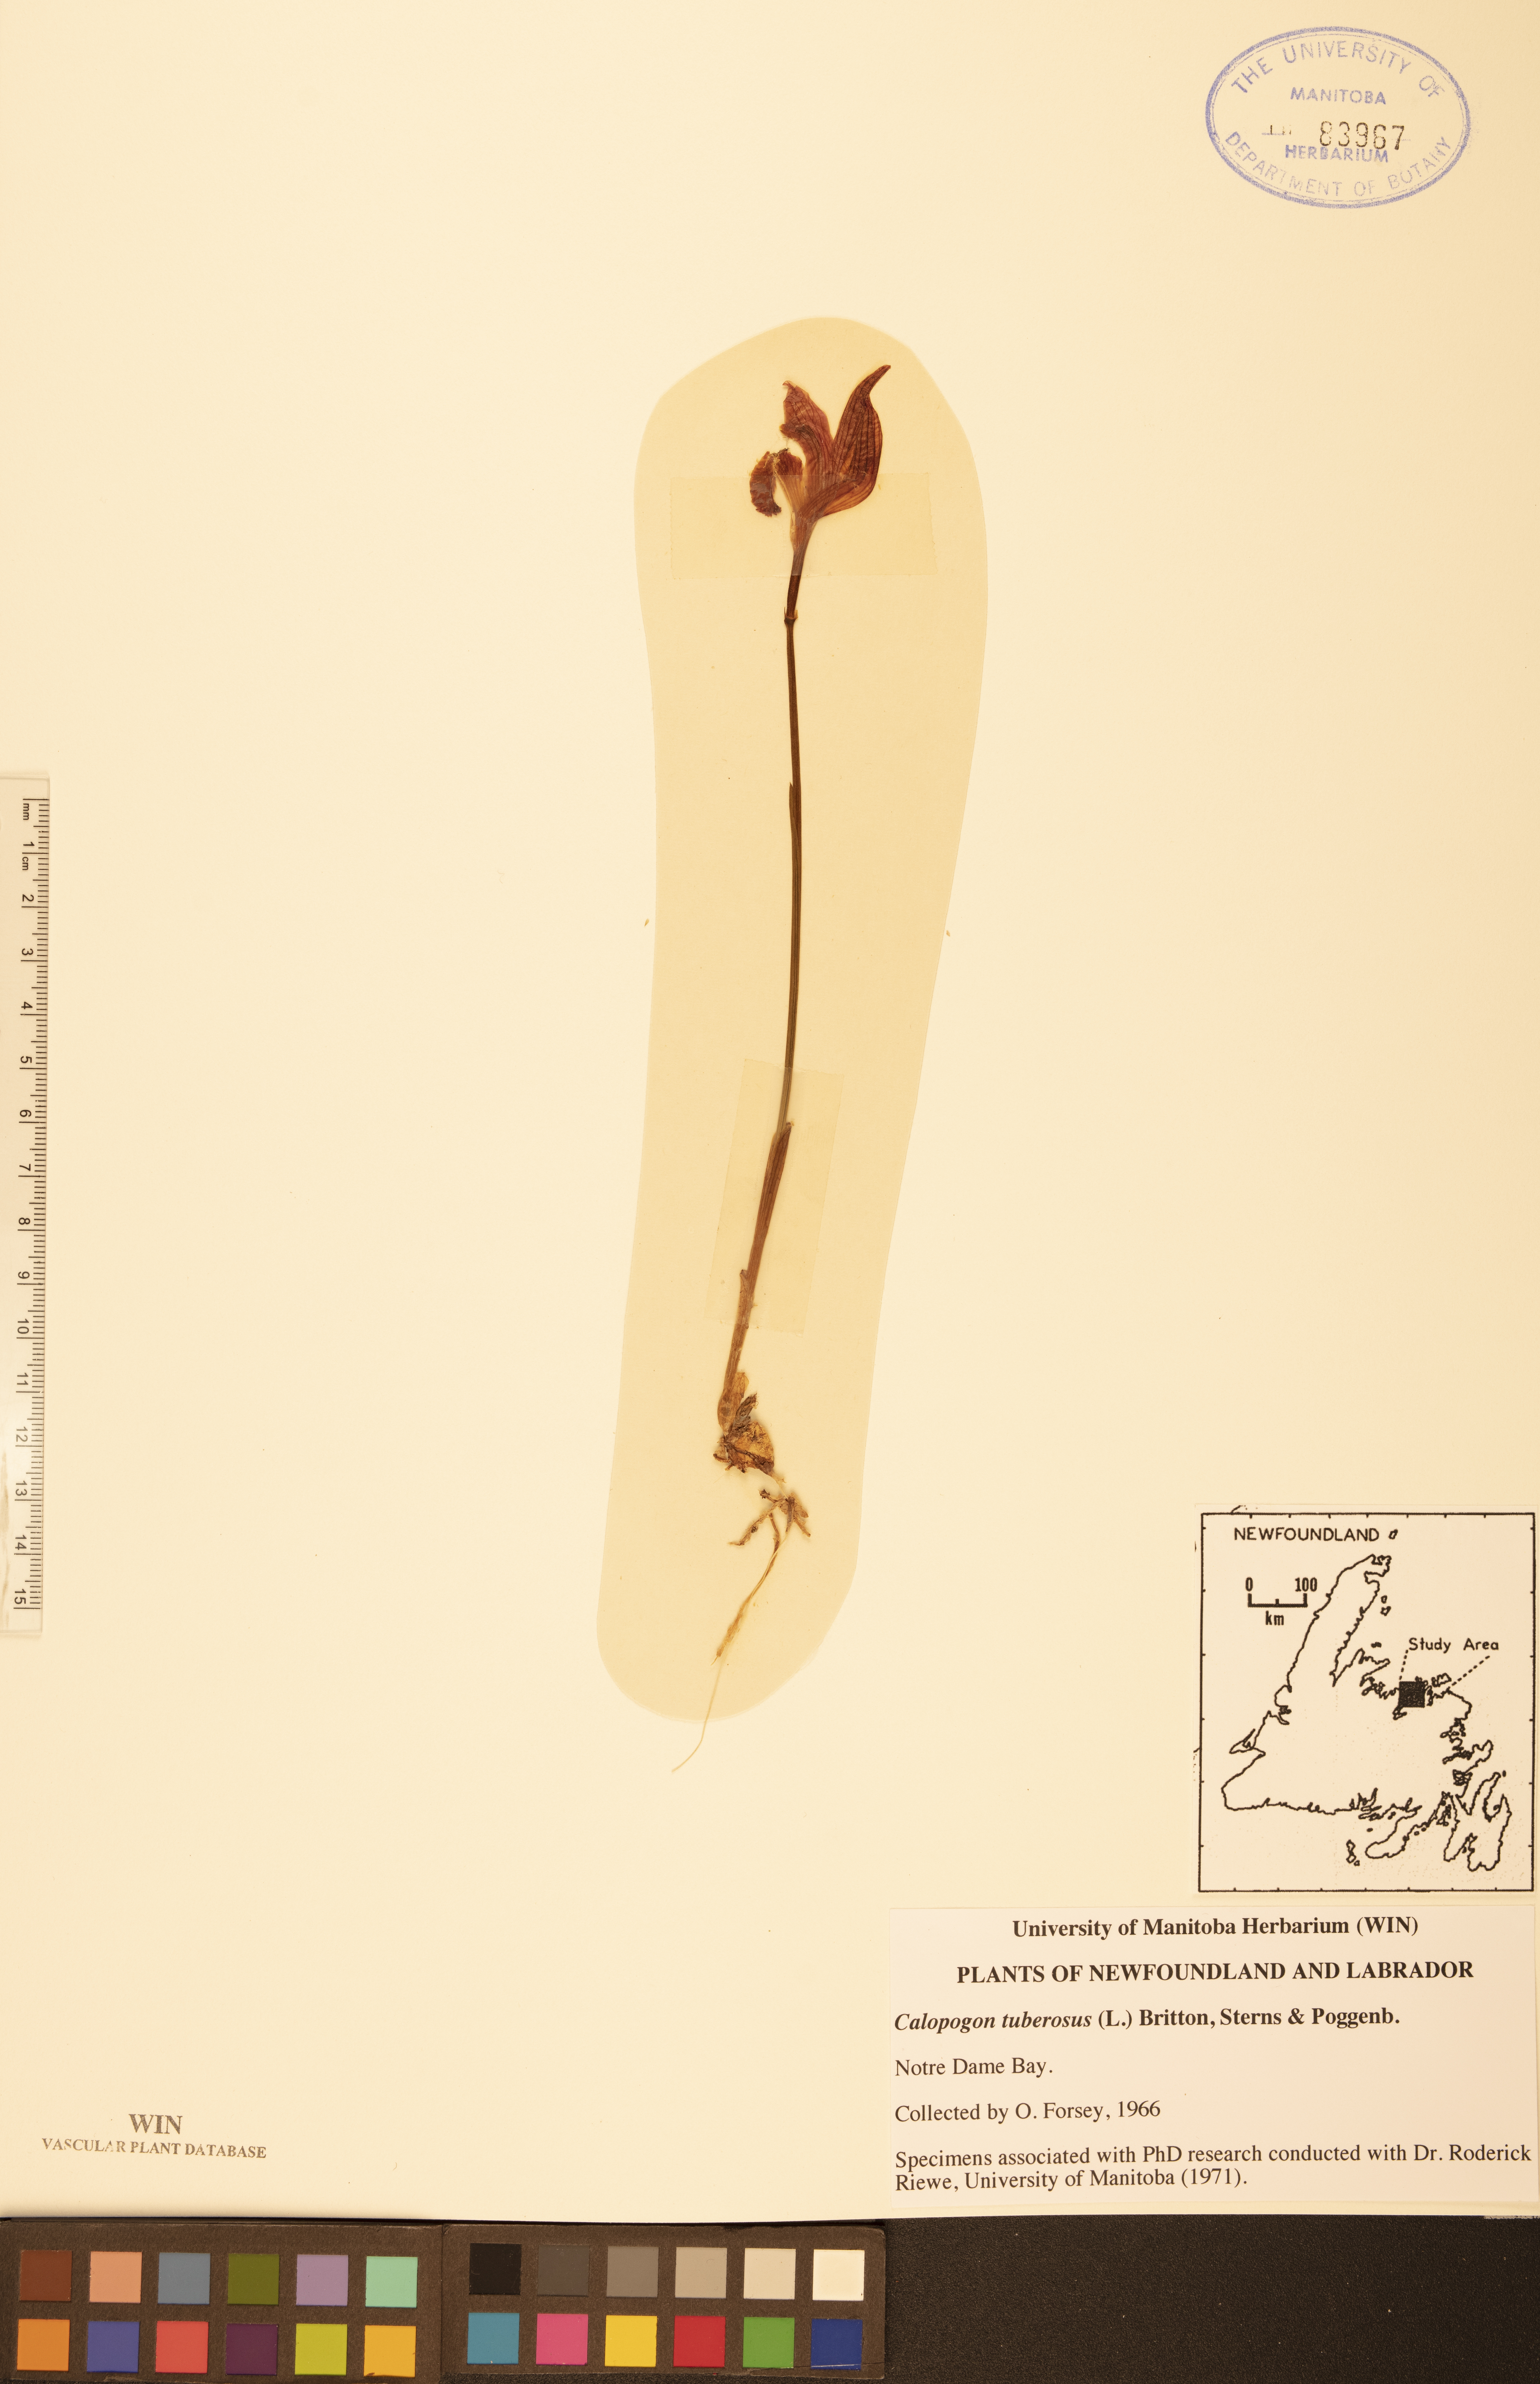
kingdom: Plantae
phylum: Tracheophyta
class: Liliopsida
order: Asparagales
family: Orchidaceae
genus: Calopogon
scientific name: Calopogon tuberosus
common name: Grass-pink
